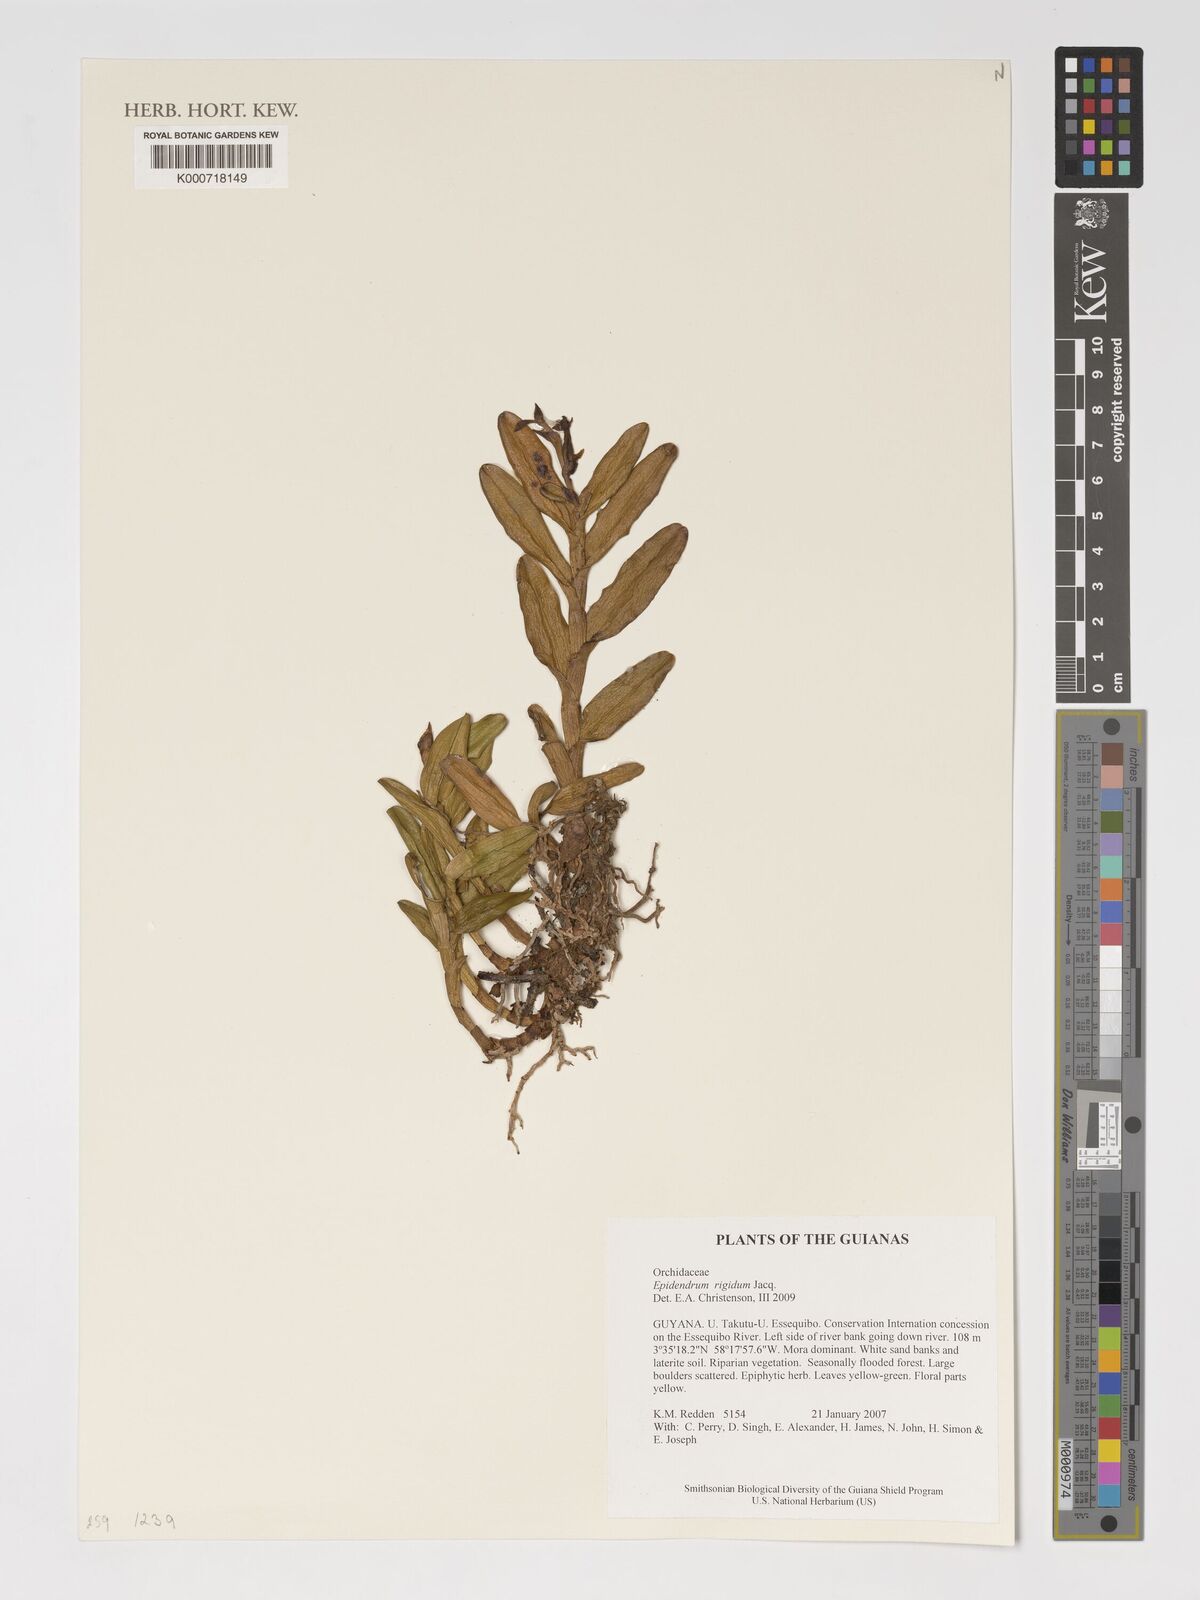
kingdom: Plantae
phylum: Tracheophyta
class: Liliopsida
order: Asparagales
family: Orchidaceae
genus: Epidendrum
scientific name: Epidendrum rigidum
